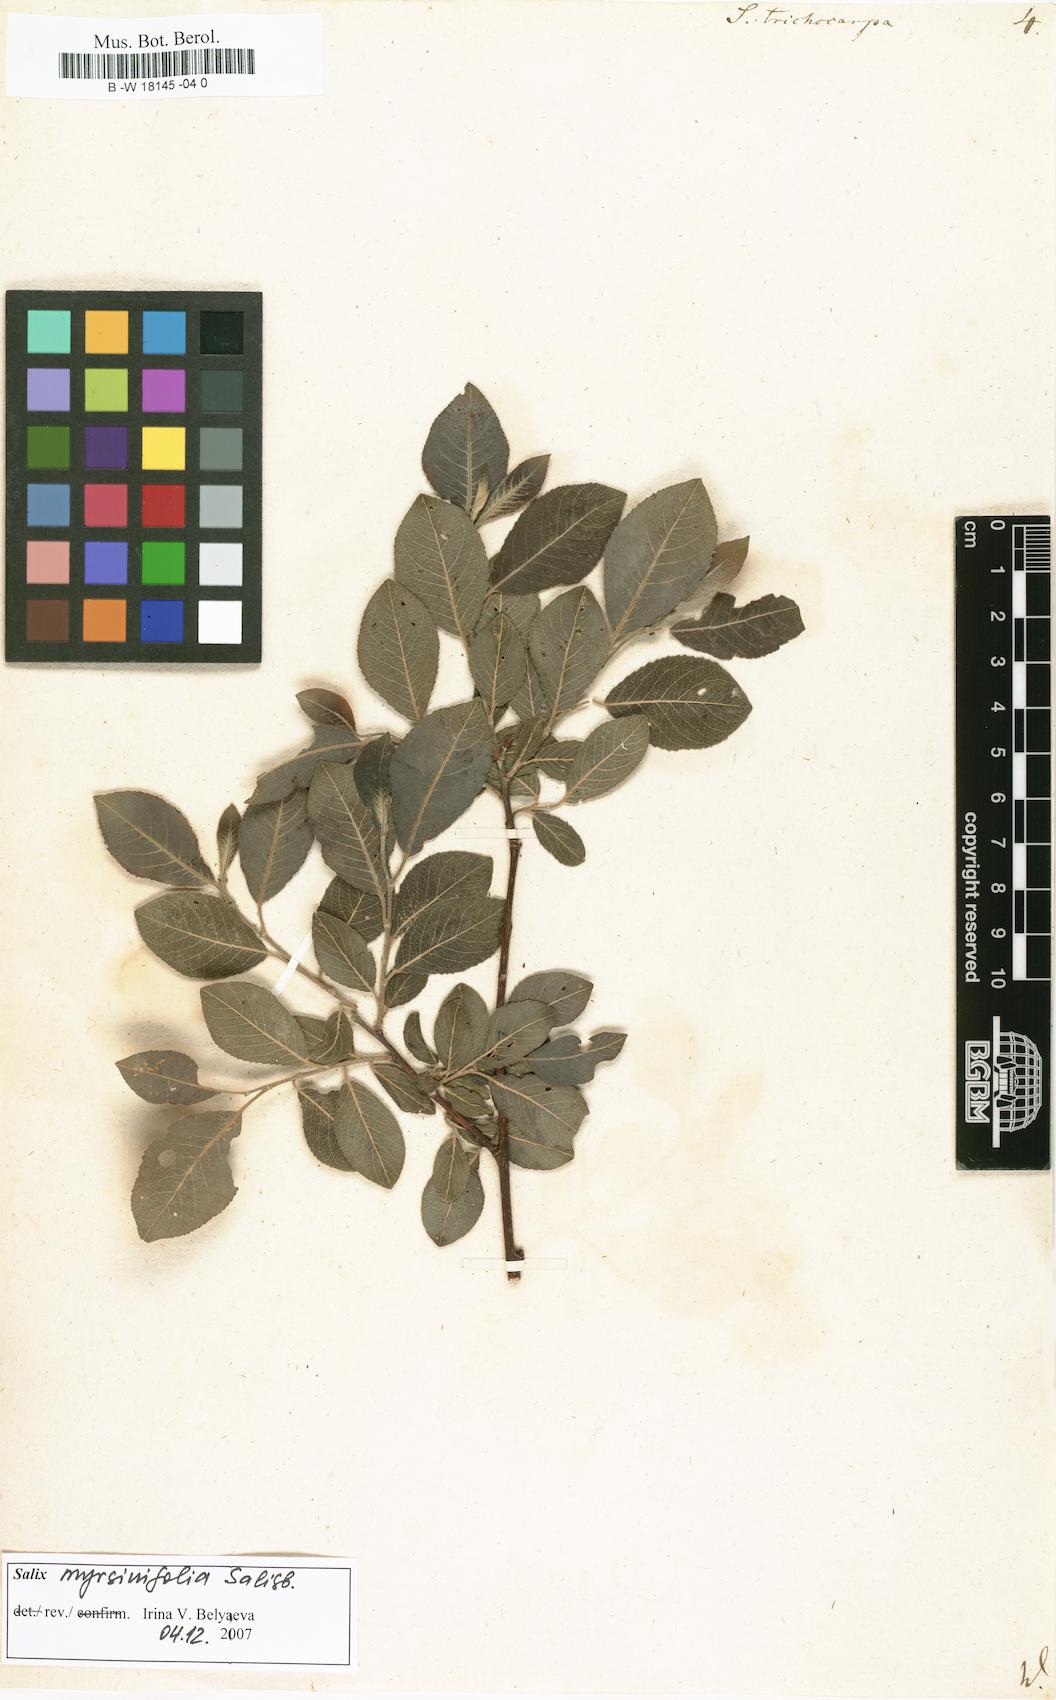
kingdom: Plantae
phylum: Tracheophyta
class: Magnoliopsida
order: Malpighiales
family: Salicaceae
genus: Salix
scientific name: Salix trichocarpa
